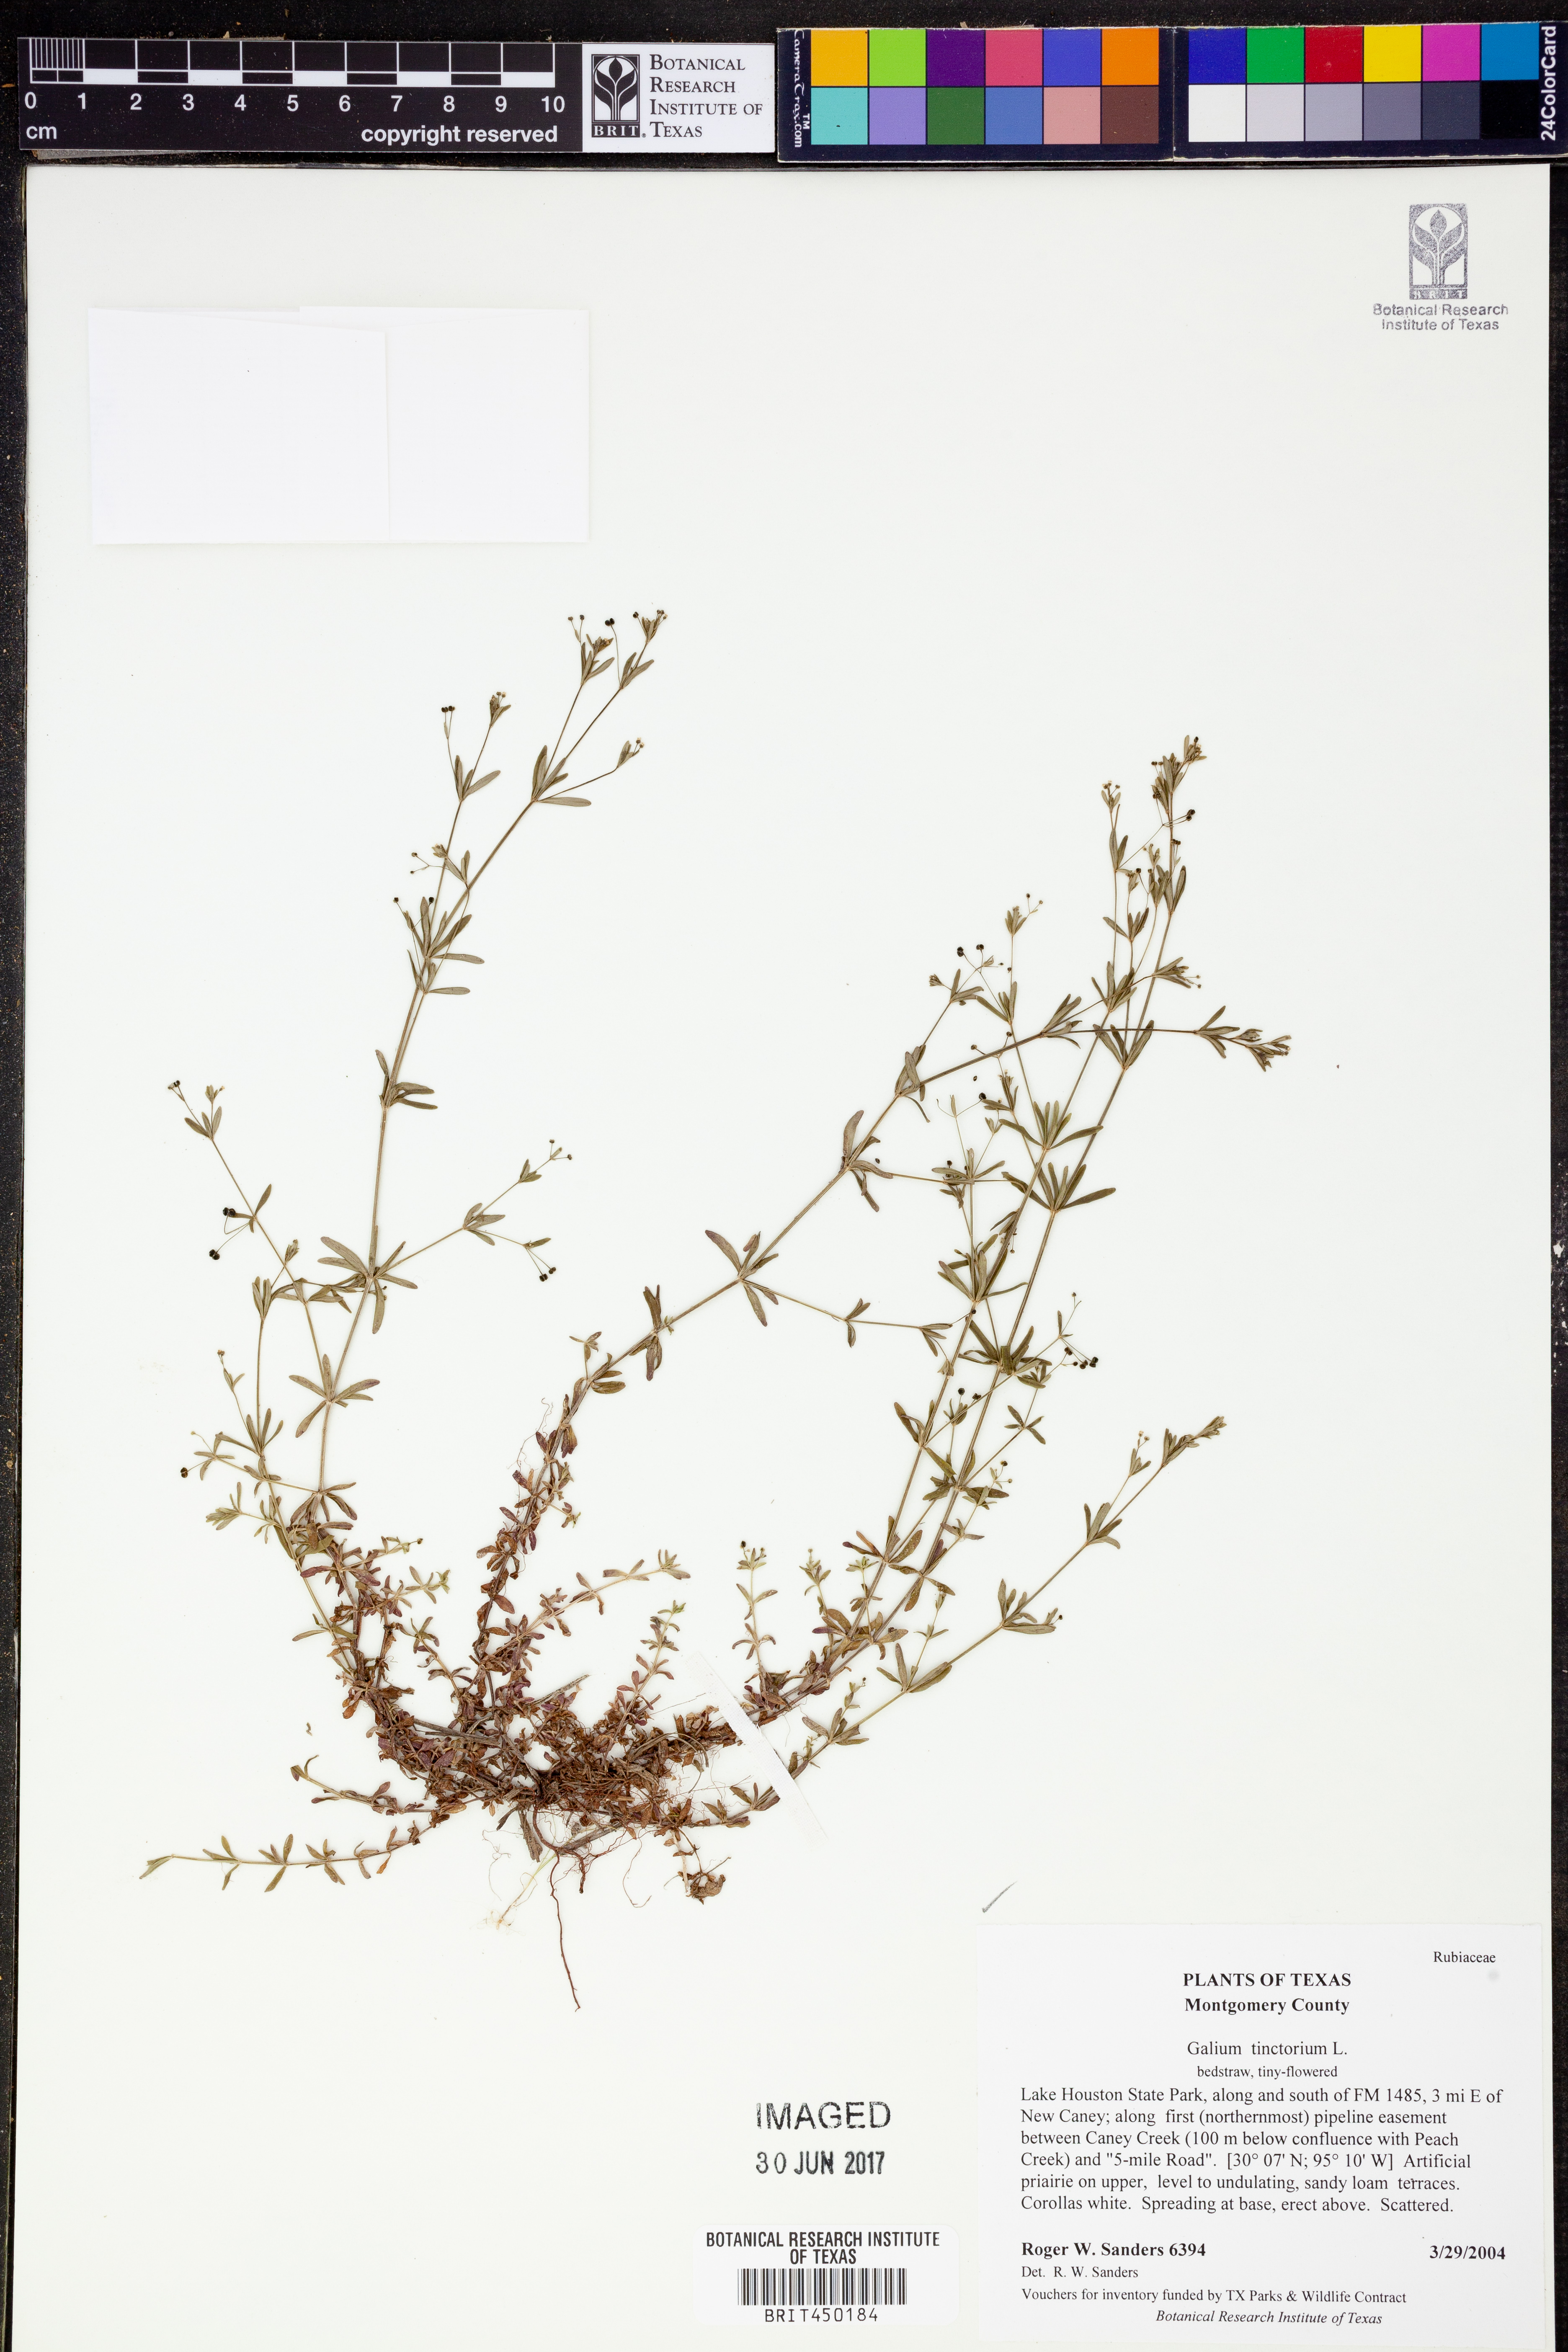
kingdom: Plantae
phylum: Tracheophyta
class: Magnoliopsida
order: Gentianales
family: Rubiaceae
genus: Asperula
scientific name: Asperula tinctoria
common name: Dyer's woodruff
